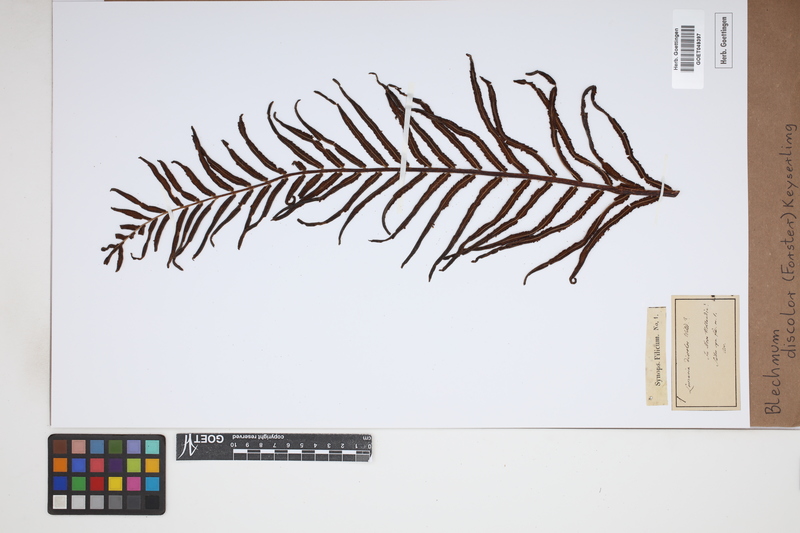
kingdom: Plantae
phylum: Tracheophyta
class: Polypodiopsida
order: Polypodiales
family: Blechnaceae
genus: Lomaria
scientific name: Lomaria discolor
